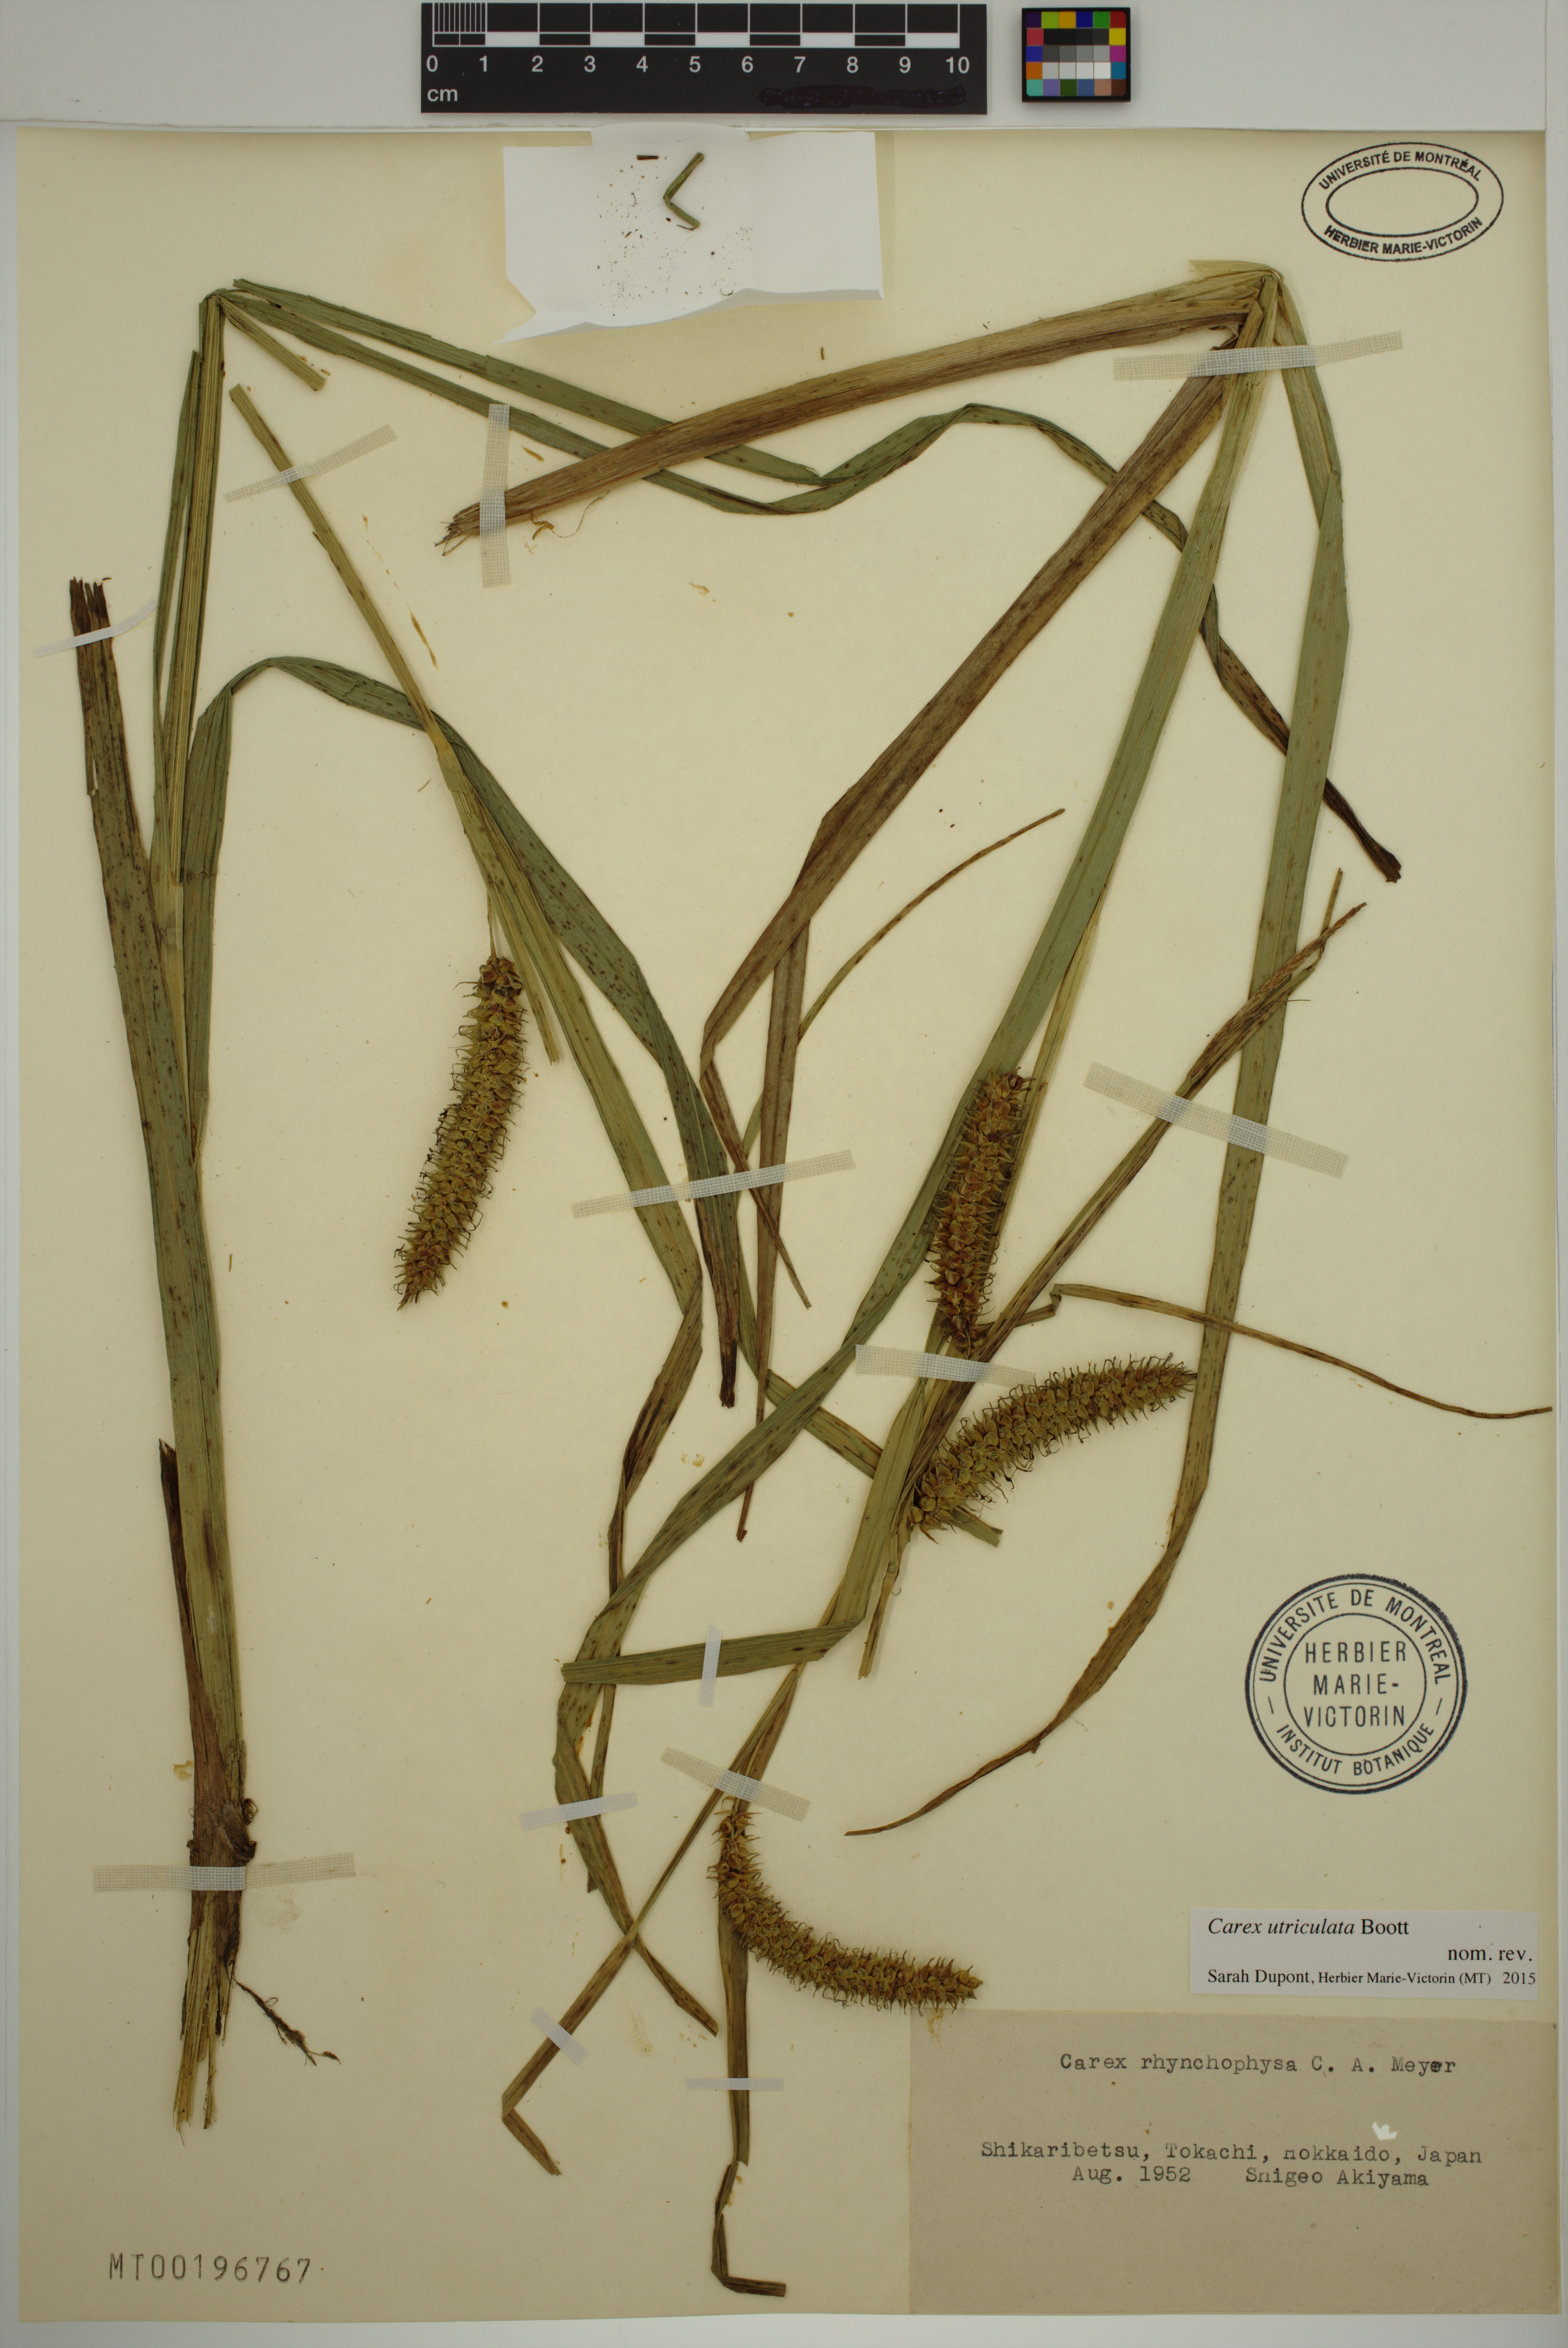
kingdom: Plantae
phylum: Tracheophyta
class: Liliopsida
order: Poales
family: Cyperaceae
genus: Carex
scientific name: Carex utriculata
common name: Beaked sedge
